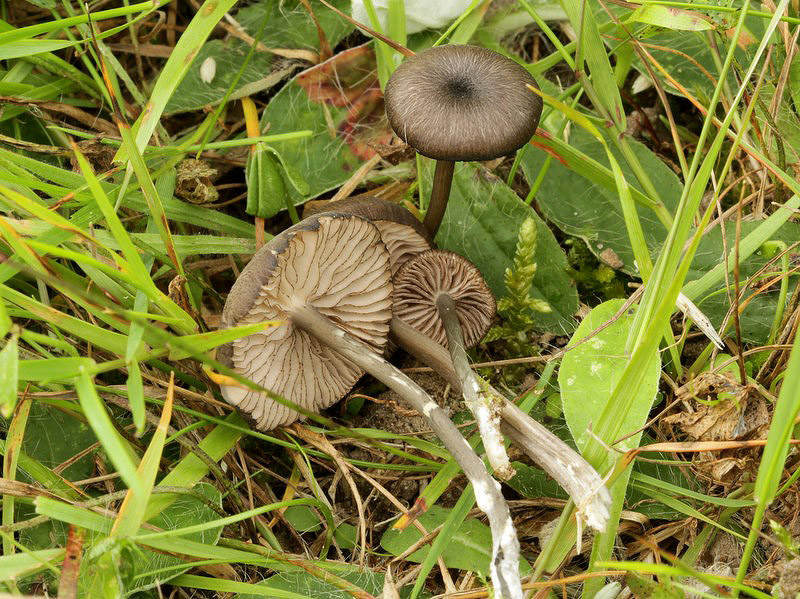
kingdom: Fungi
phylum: Basidiomycota
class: Agaricomycetes
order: Agaricales
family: Entolomataceae
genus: Entoloma
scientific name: Entoloma
